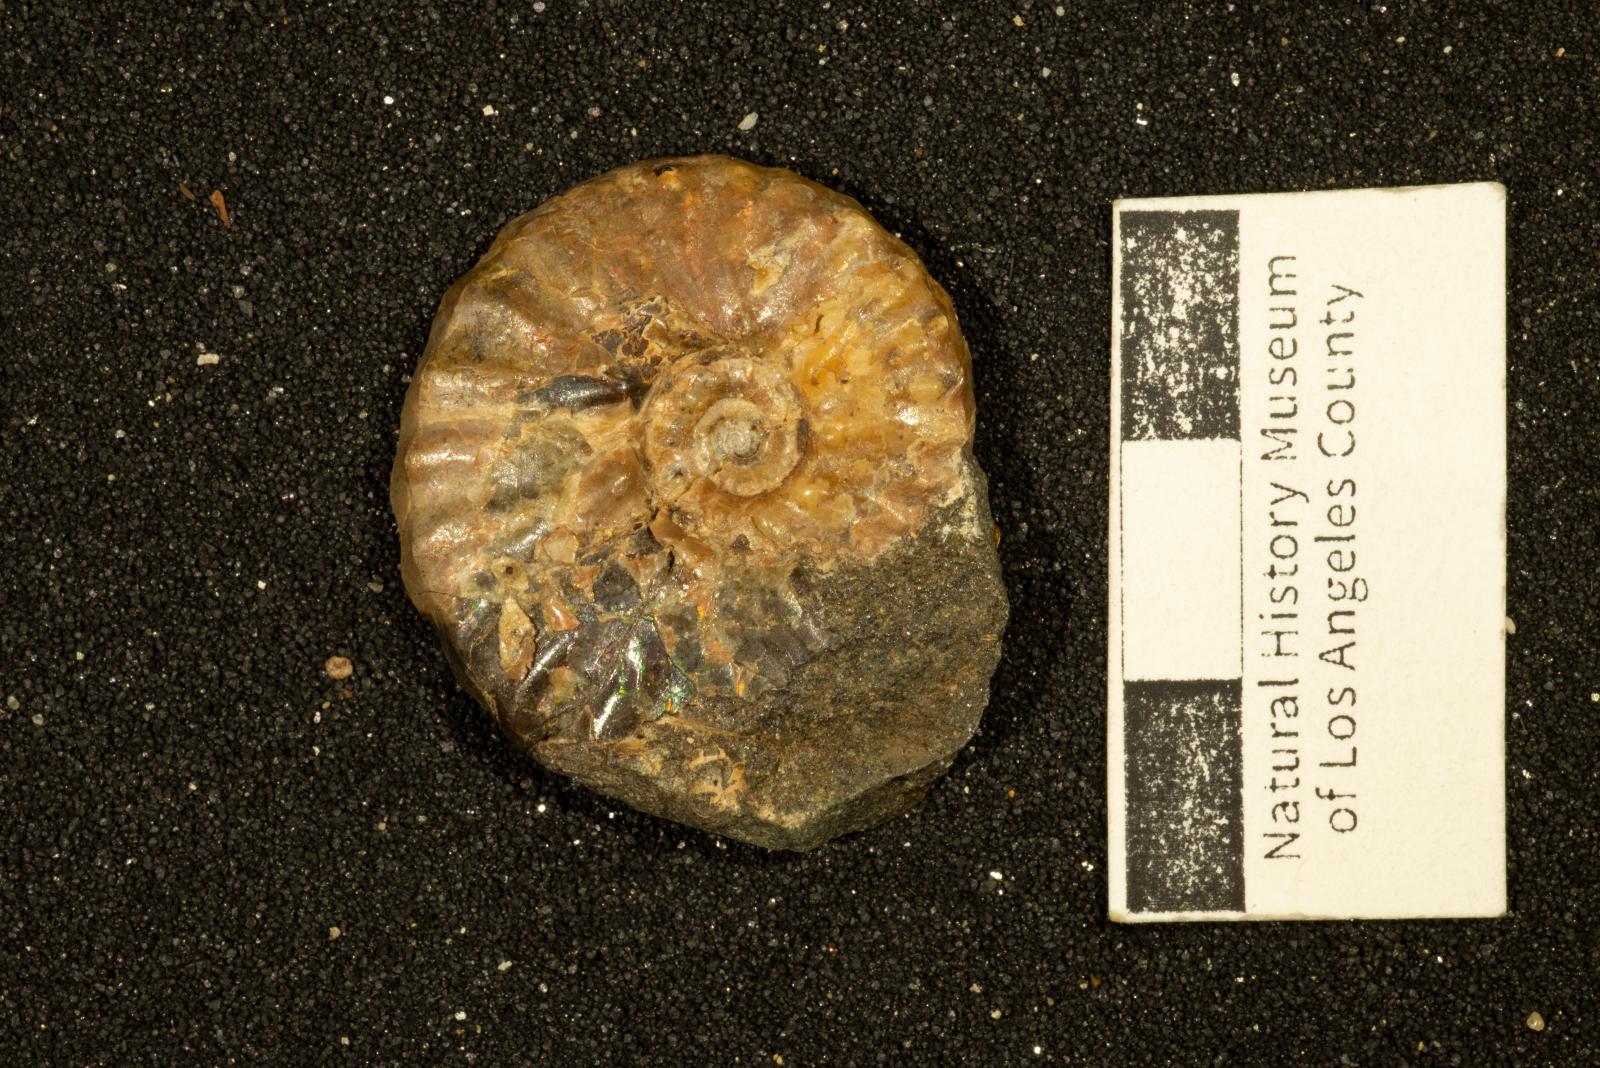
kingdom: Animalia
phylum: Mollusca
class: Cephalopoda
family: Collignoniceratidae
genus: Subprionocyclus
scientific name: Subprionocyclus
